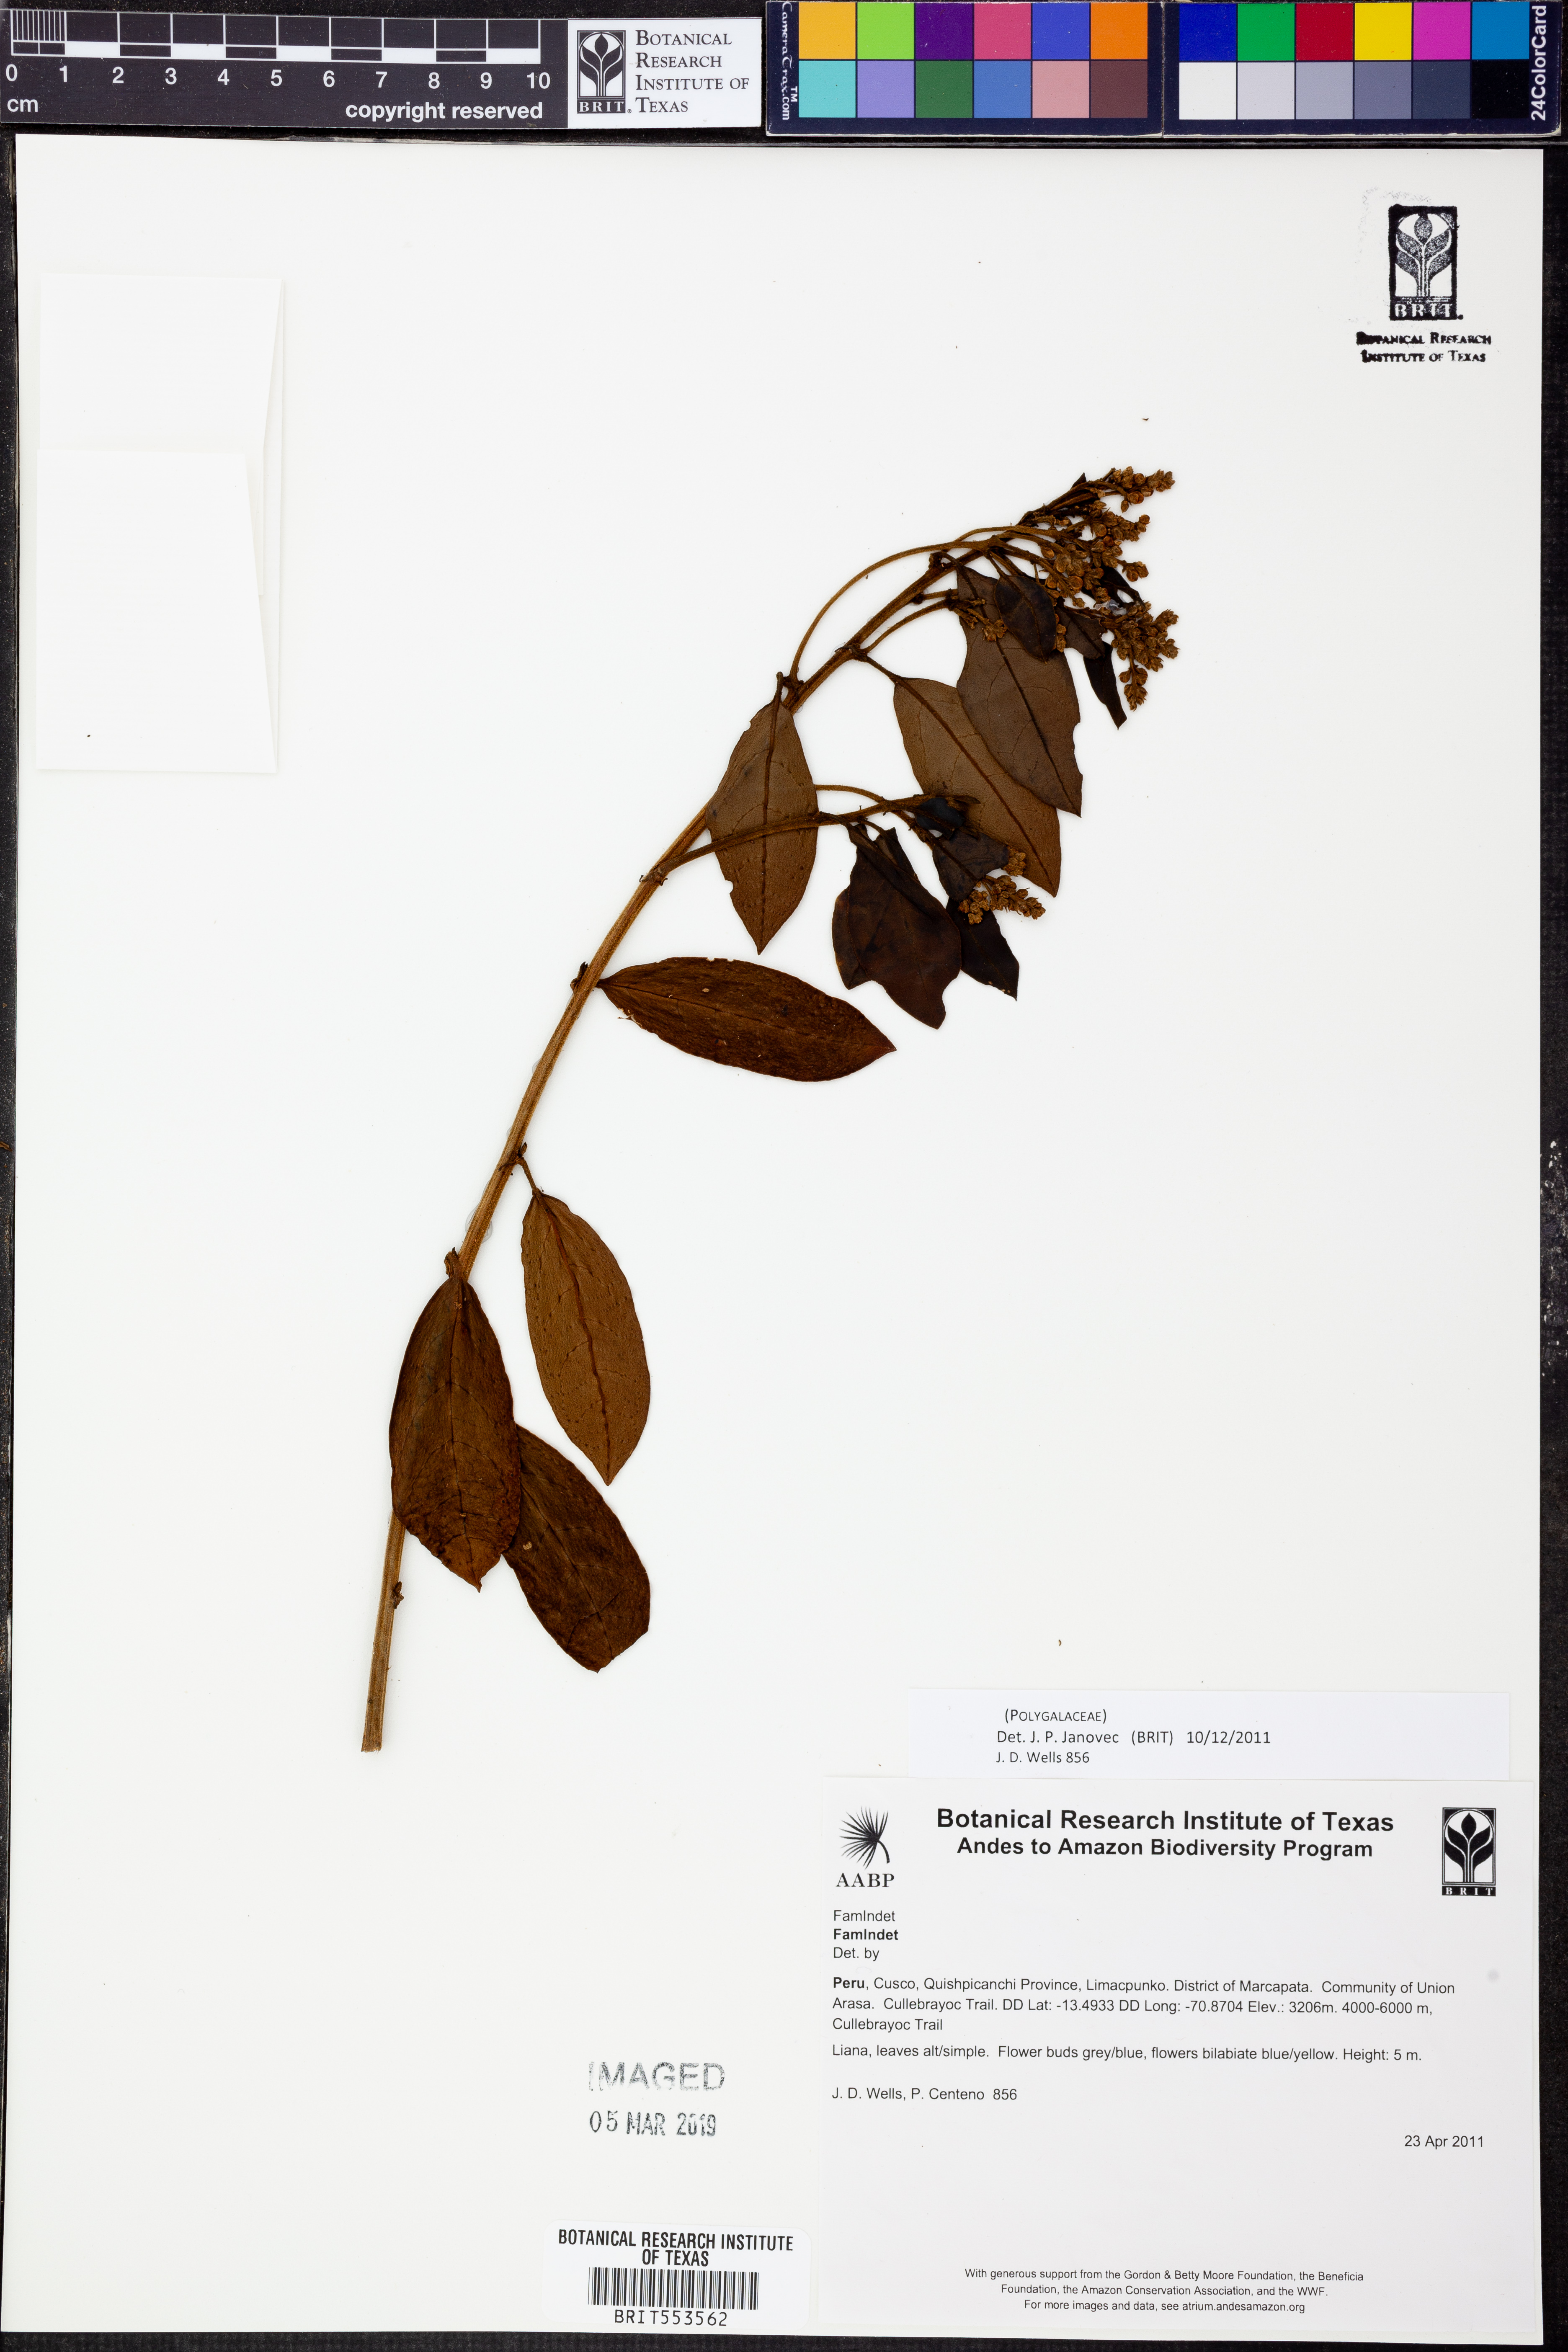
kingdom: Plantae
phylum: Tracheophyta
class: Magnoliopsida
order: Fabales
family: Polygalaceae
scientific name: Polygalaceae
